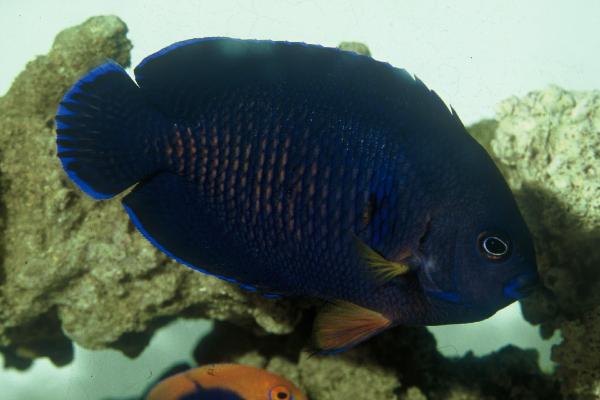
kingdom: Animalia
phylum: Chordata
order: Perciformes
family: Pomacanthidae
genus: Centropyge
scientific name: Centropyge bispinosa
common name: Coral beauty
